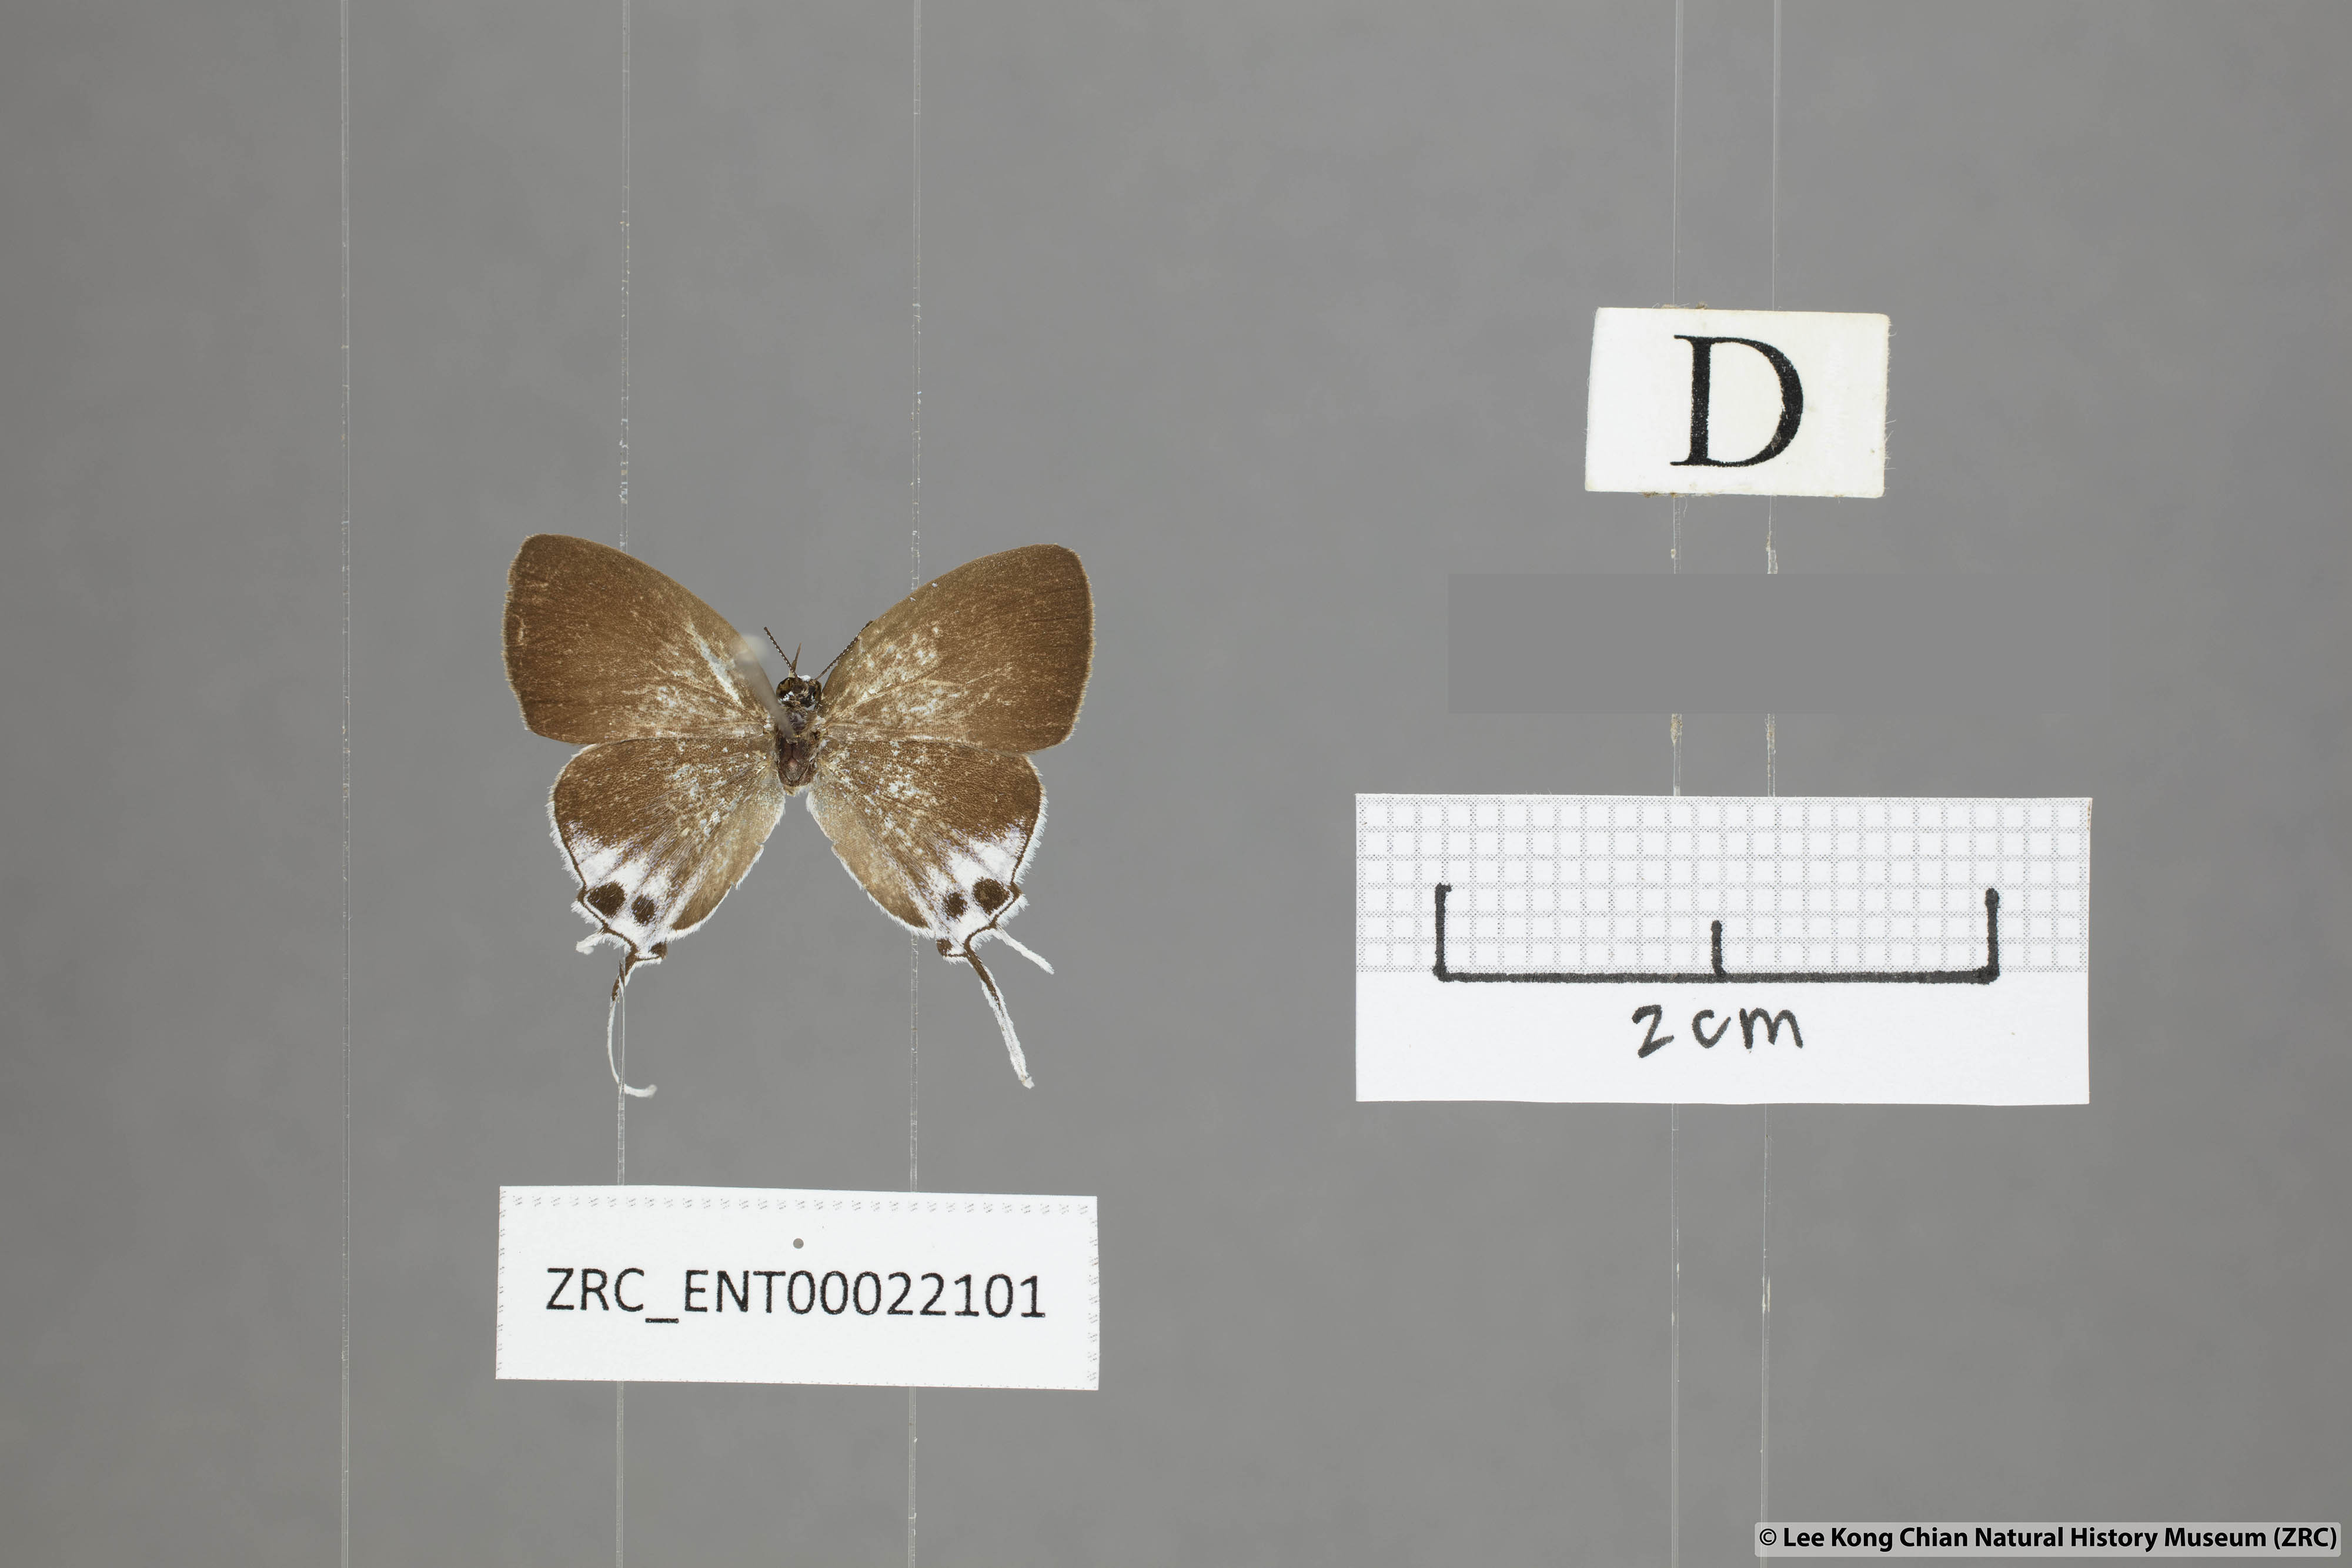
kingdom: Animalia
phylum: Arthropoda
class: Insecta
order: Lepidoptera
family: Lycaenidae
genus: Suasa
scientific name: Suasa lisides
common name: Red imperial
